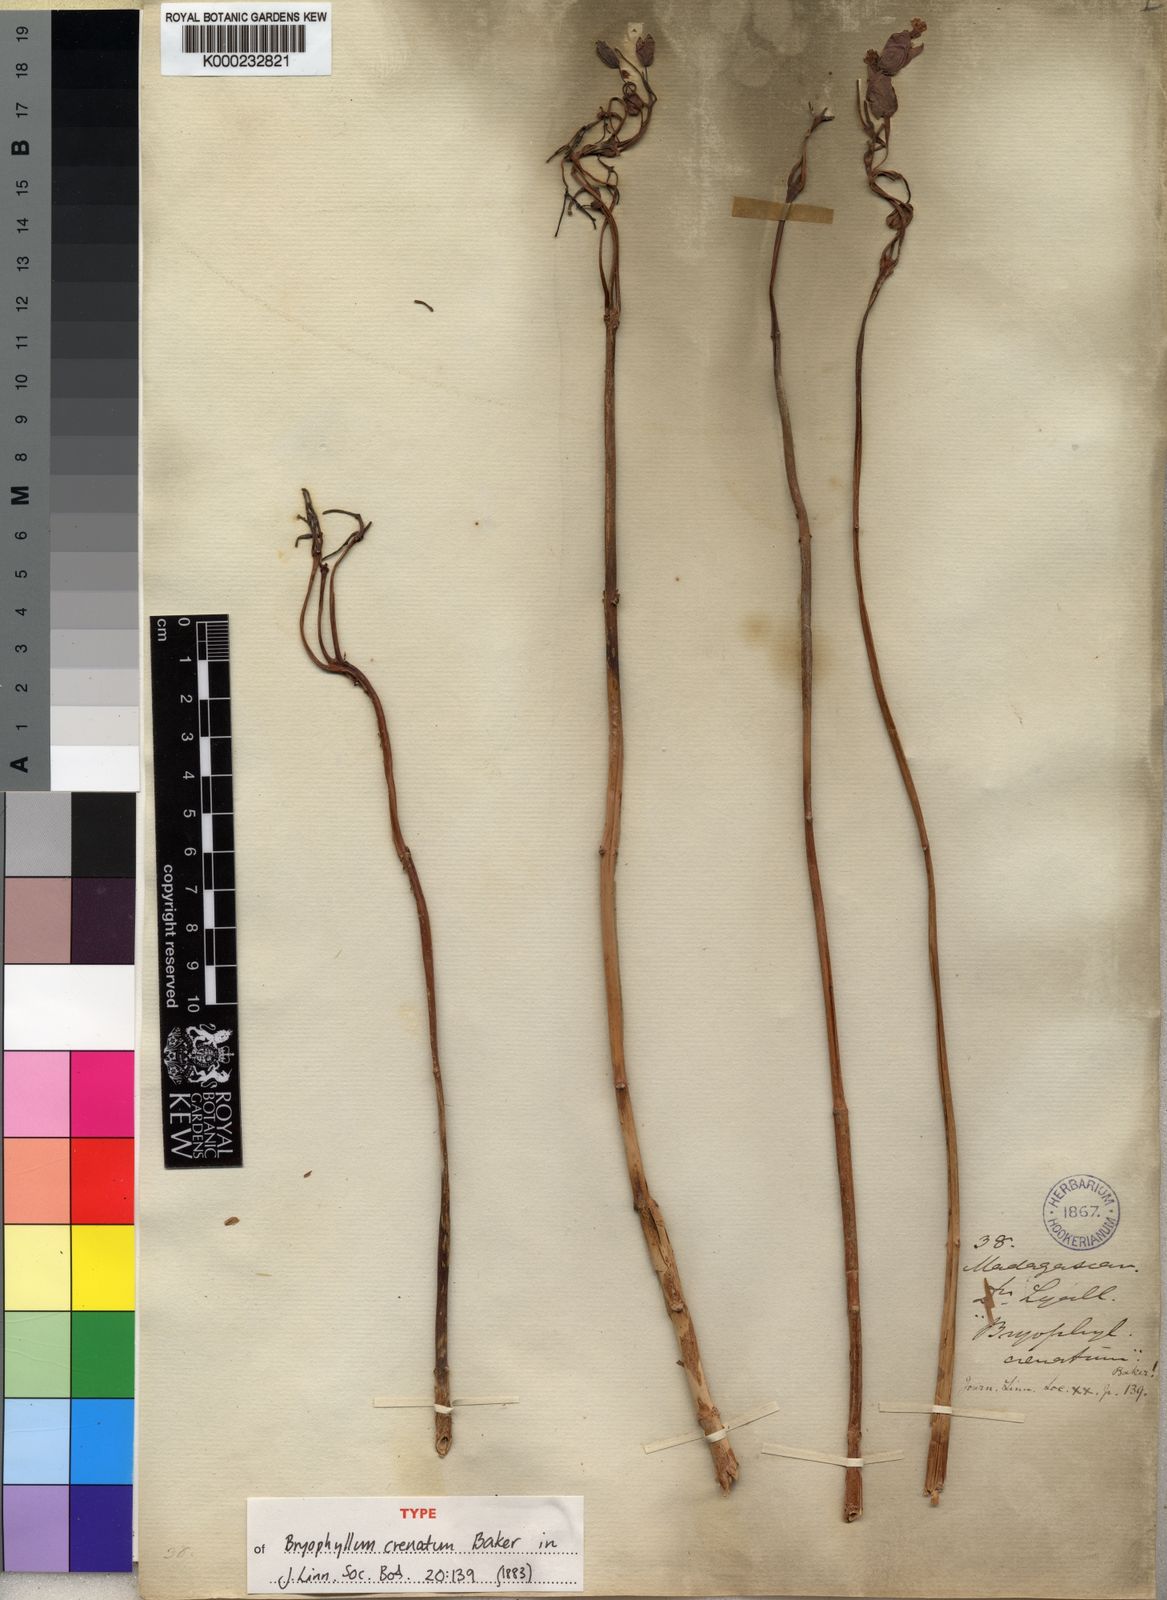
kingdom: Plantae
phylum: Tracheophyta
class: Magnoliopsida
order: Saxifragales
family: Crassulaceae
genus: Kalanchoe
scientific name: Kalanchoe crenata
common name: Neverdie
